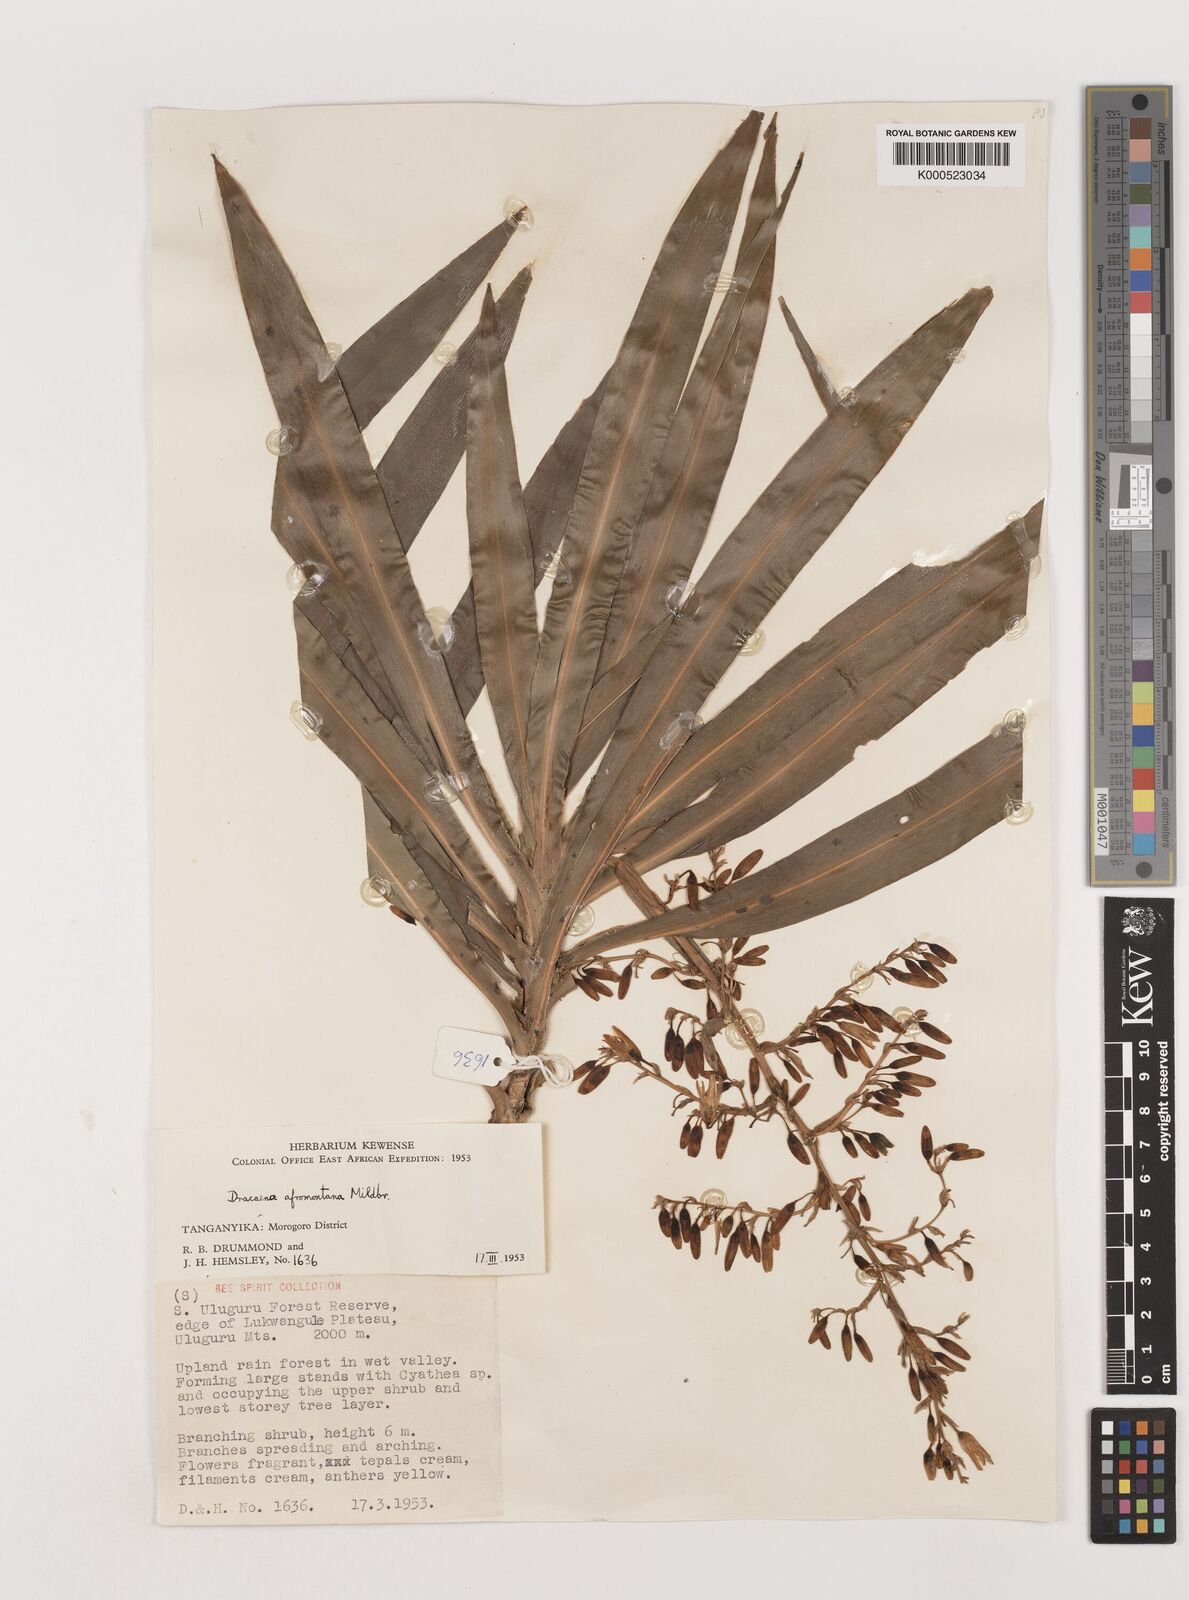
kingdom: Plantae
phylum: Tracheophyta
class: Liliopsida
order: Asparagales
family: Asparagaceae
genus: Dracaena
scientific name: Dracaena afromontana
